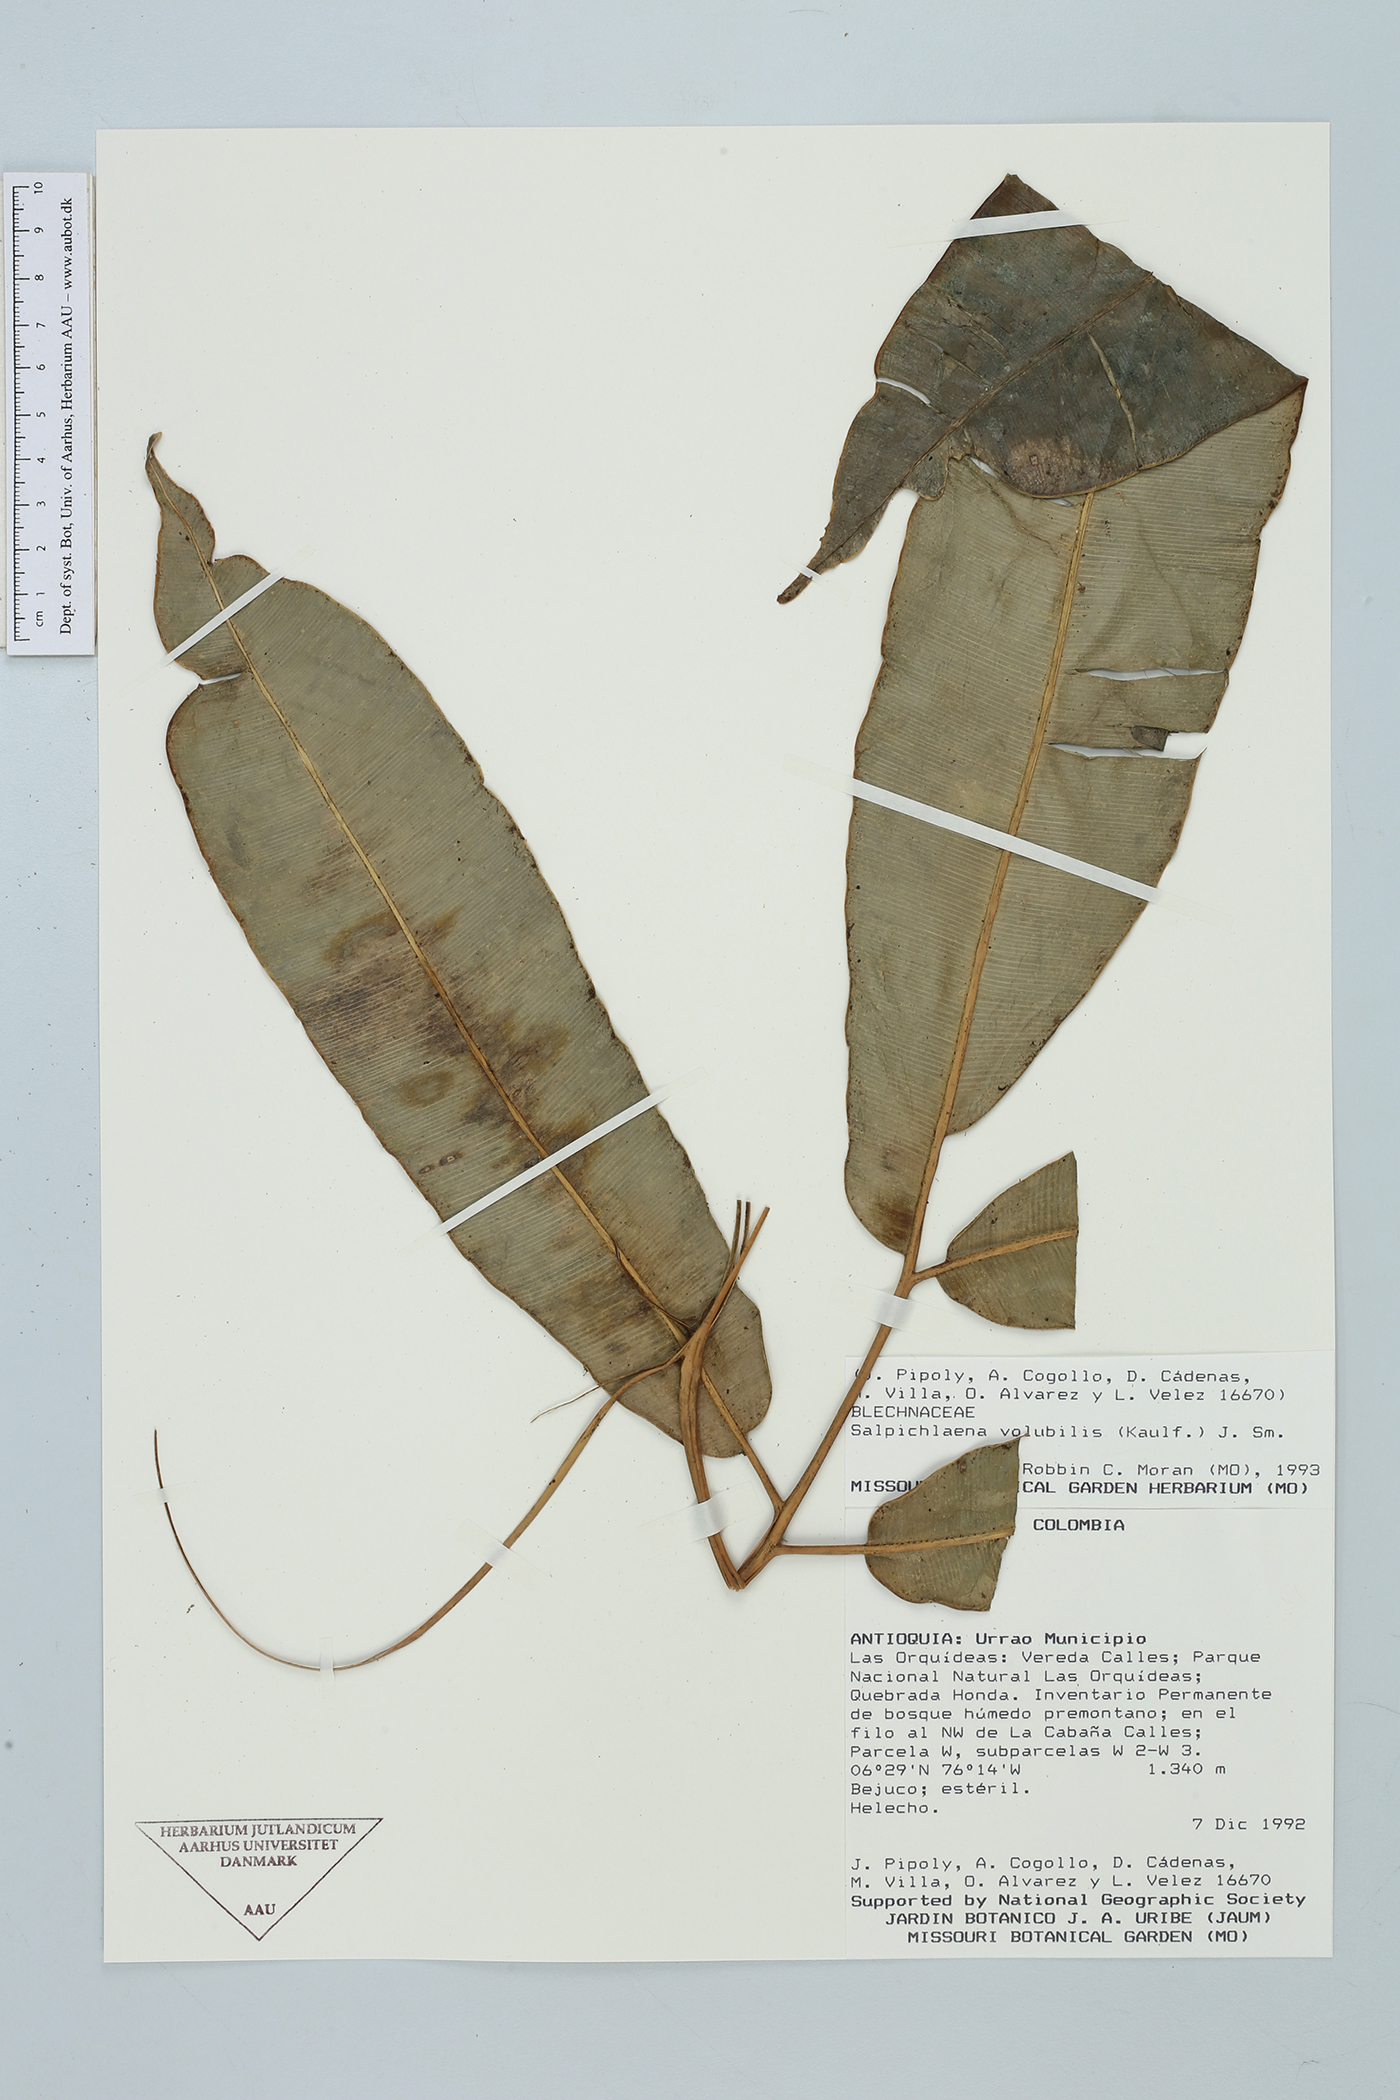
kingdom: Plantae
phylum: Tracheophyta
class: Polypodiopsida
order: Polypodiales
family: Blechnaceae
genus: Salpichlaena
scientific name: Salpichlaena volubilis
